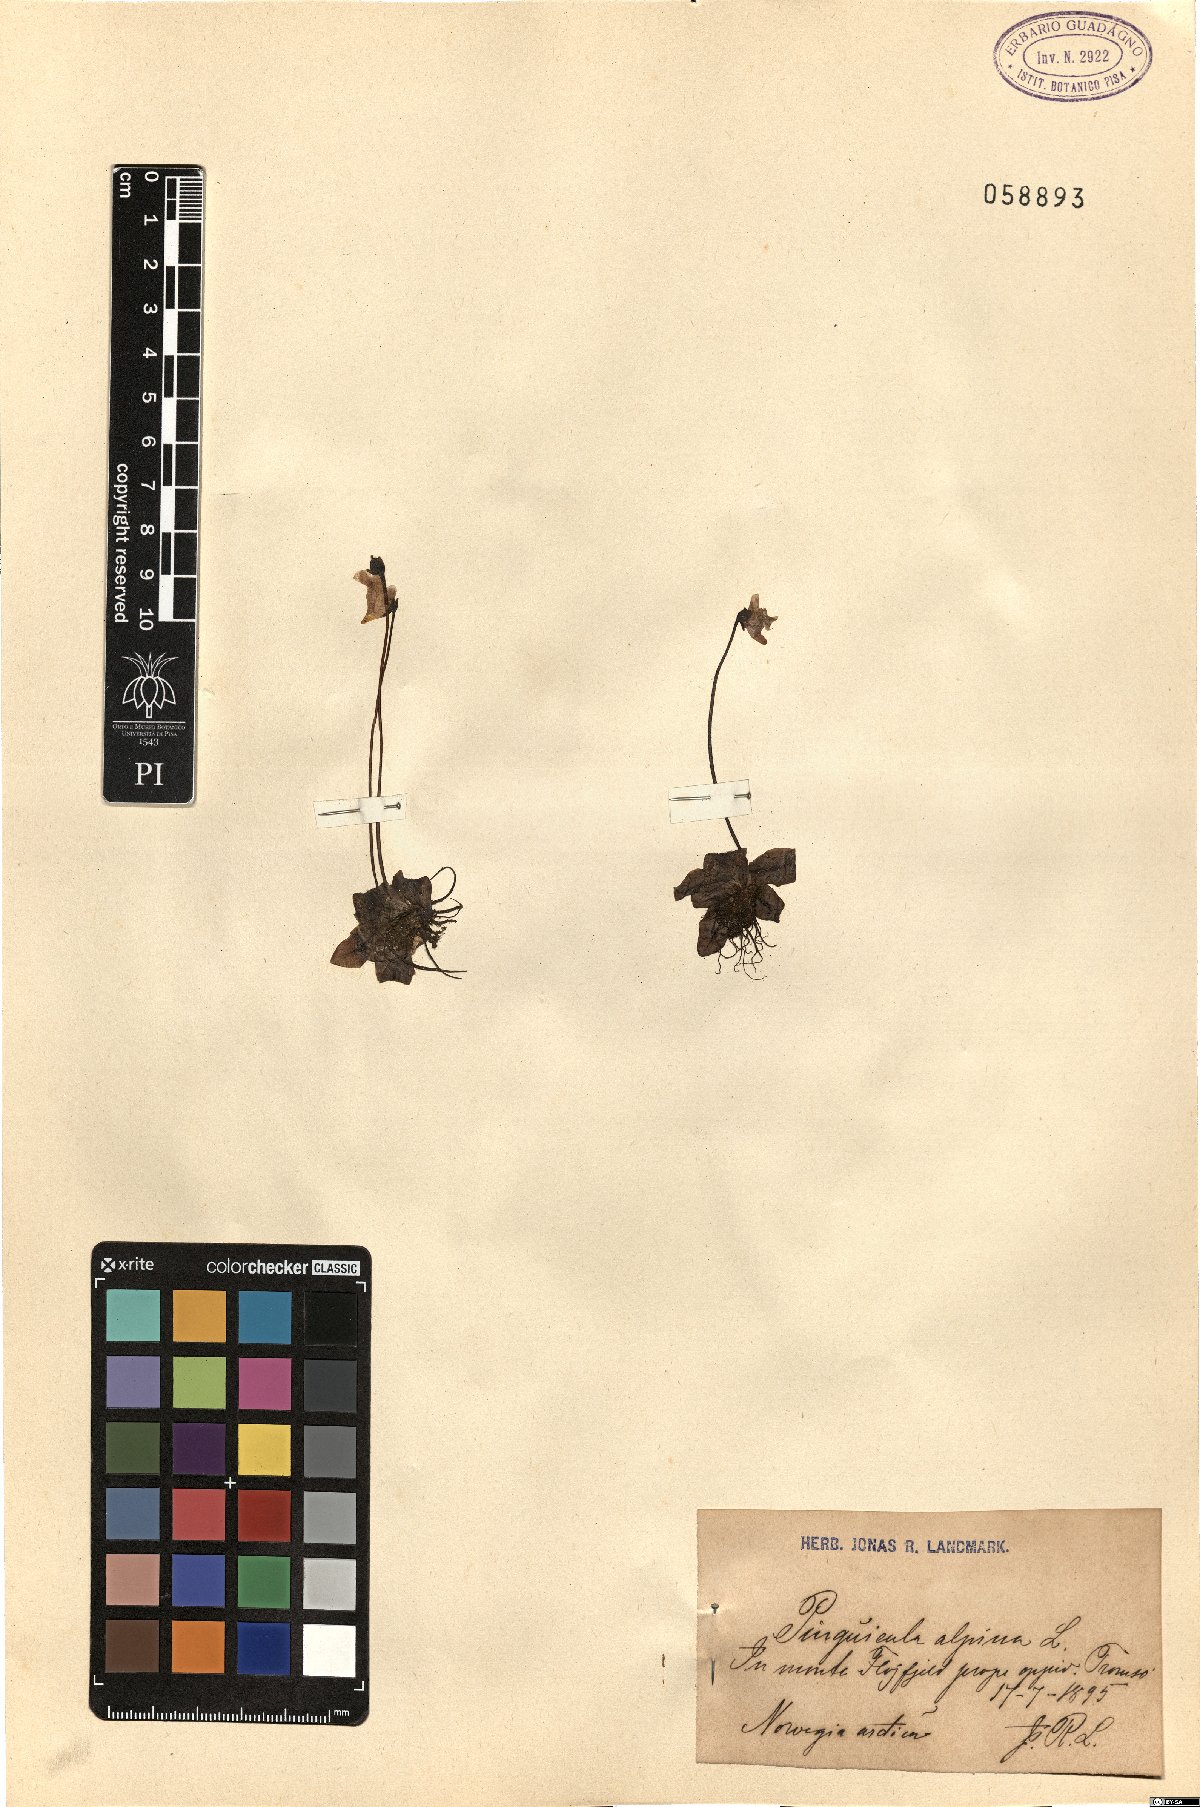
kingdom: Plantae
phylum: Tracheophyta
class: Magnoliopsida
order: Lamiales
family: Lentibulariaceae
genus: Pinguicula
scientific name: Pinguicula alpina
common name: Alpine butterwort
